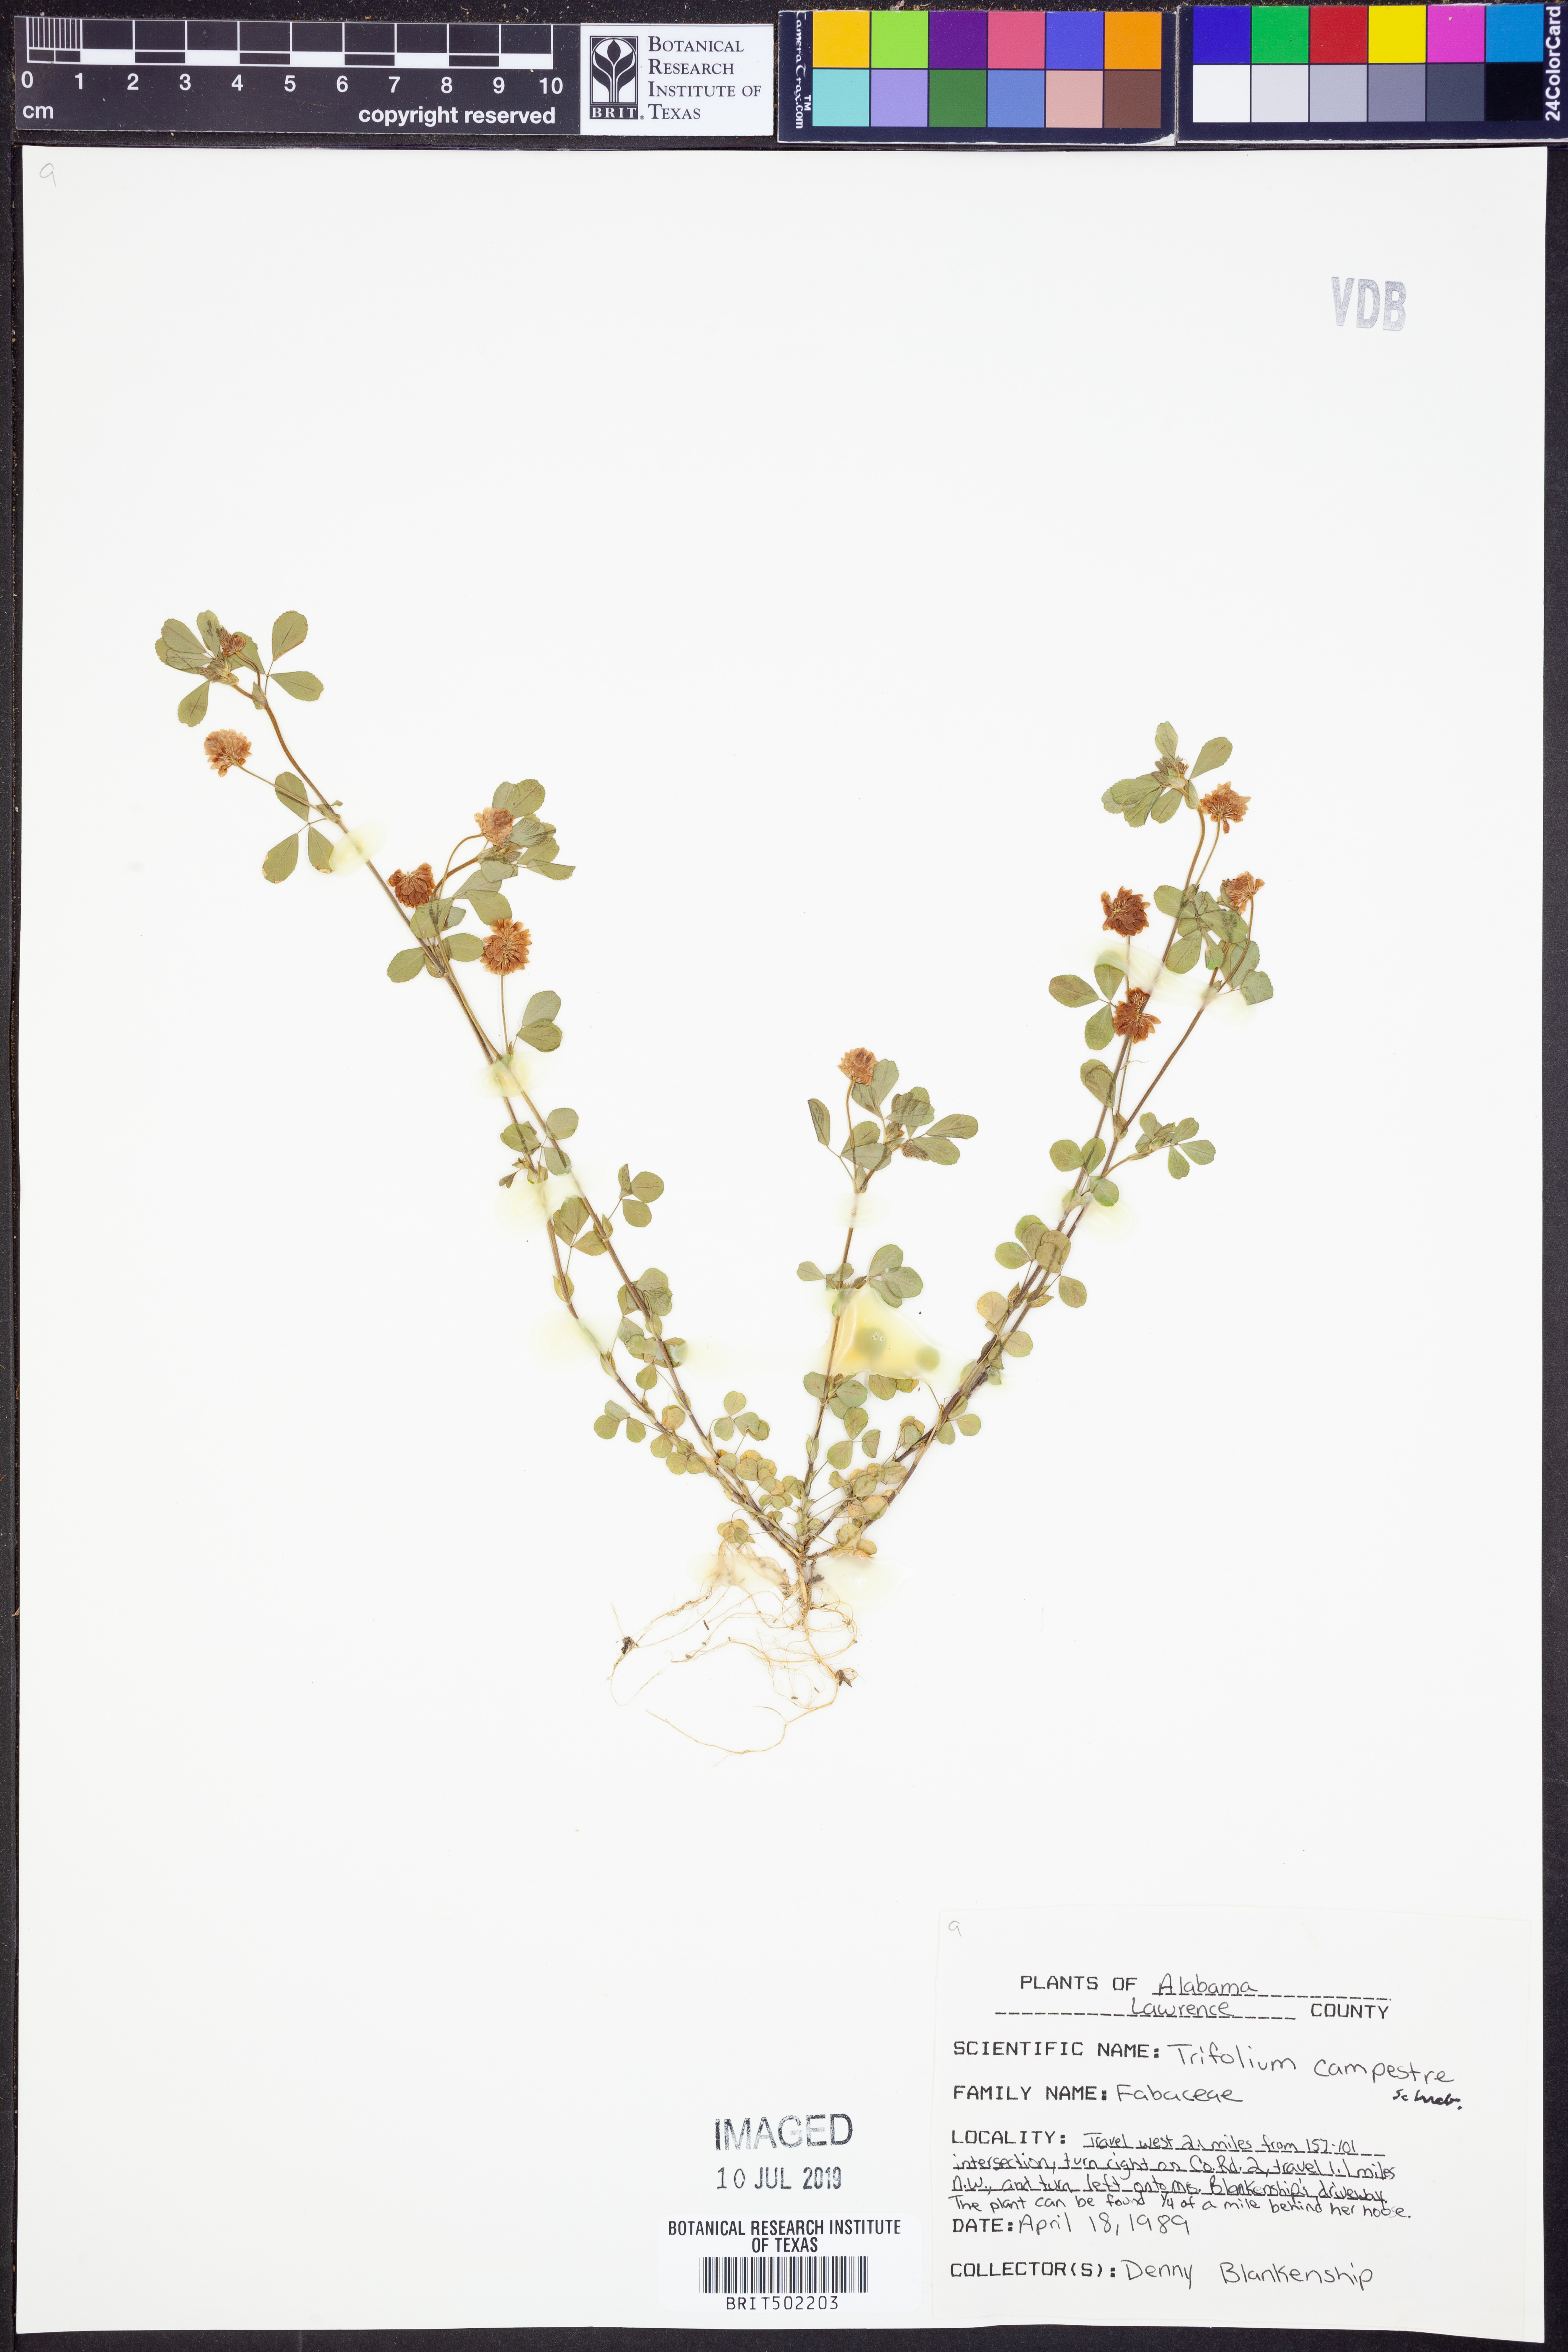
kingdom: Plantae
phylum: Tracheophyta
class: Magnoliopsida
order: Fabales
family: Fabaceae
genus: Trifolium
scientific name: Trifolium campestre
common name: Field clover
